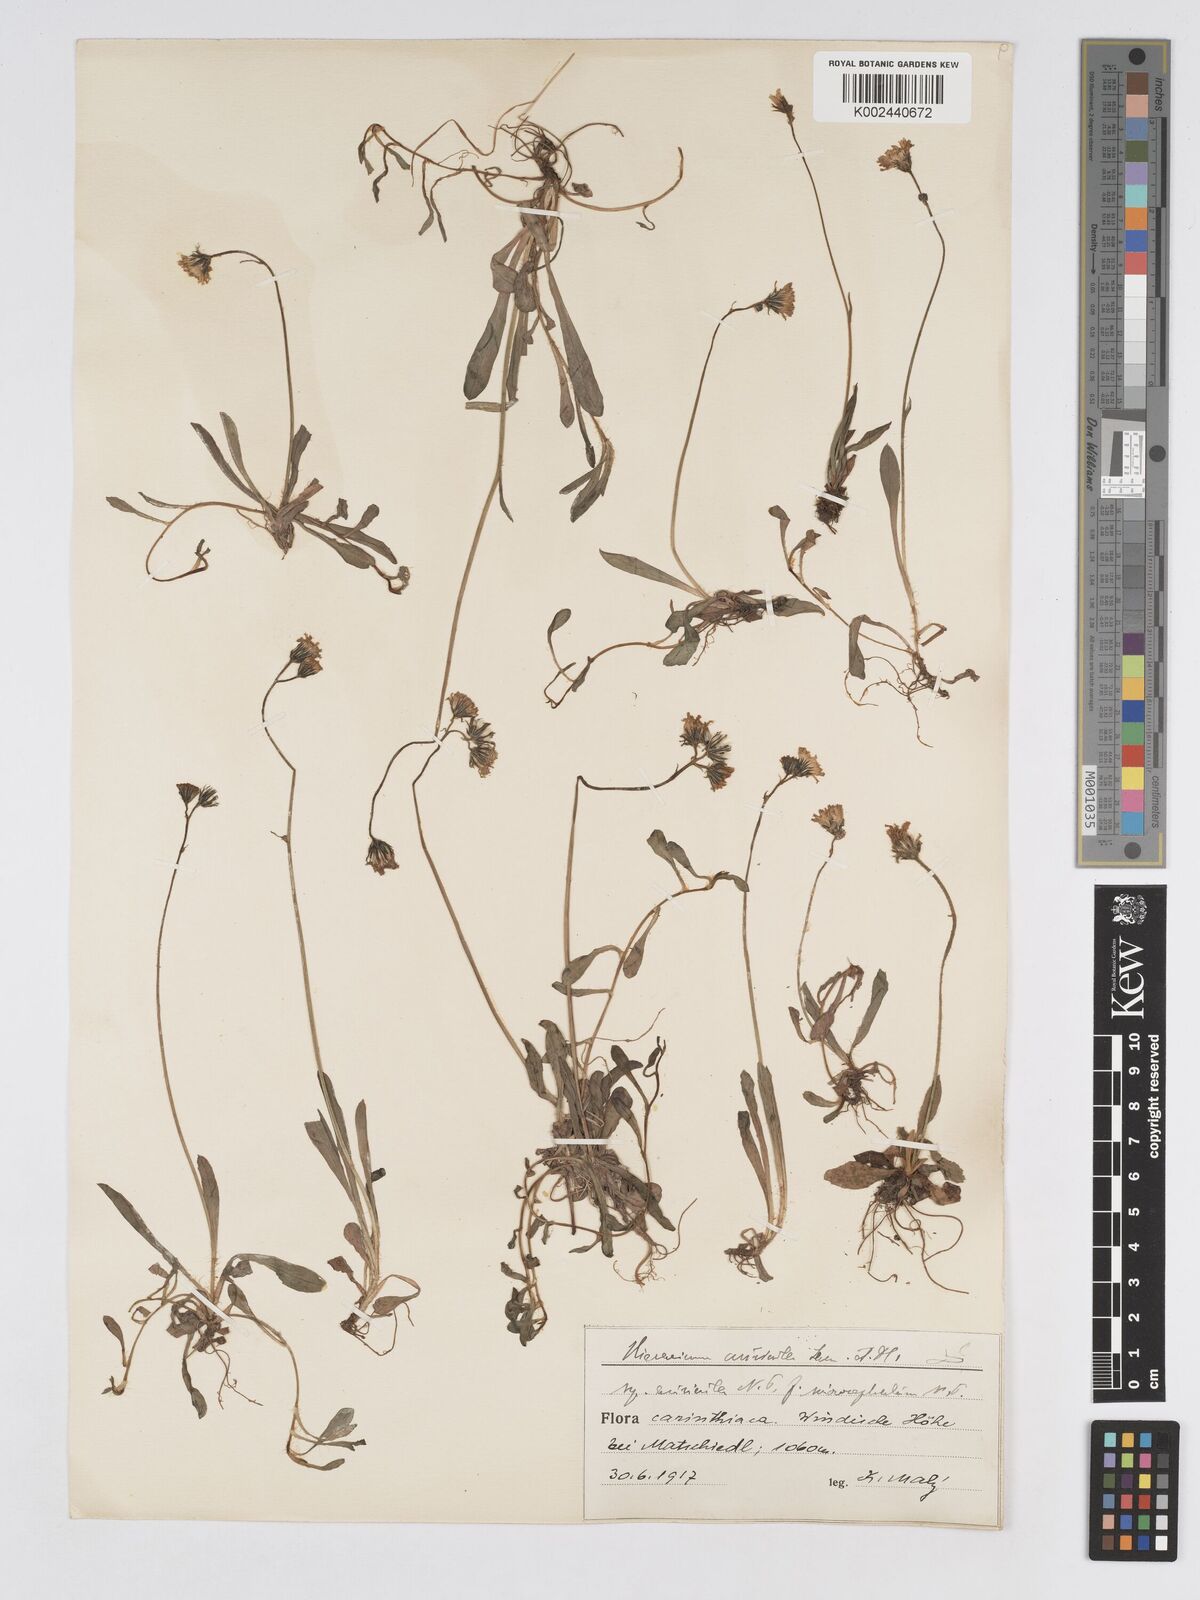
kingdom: Plantae
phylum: Tracheophyta
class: Magnoliopsida
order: Asterales
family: Asteraceae
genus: Pilosella
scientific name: Pilosella floribunda
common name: Glaucous hawkweed
